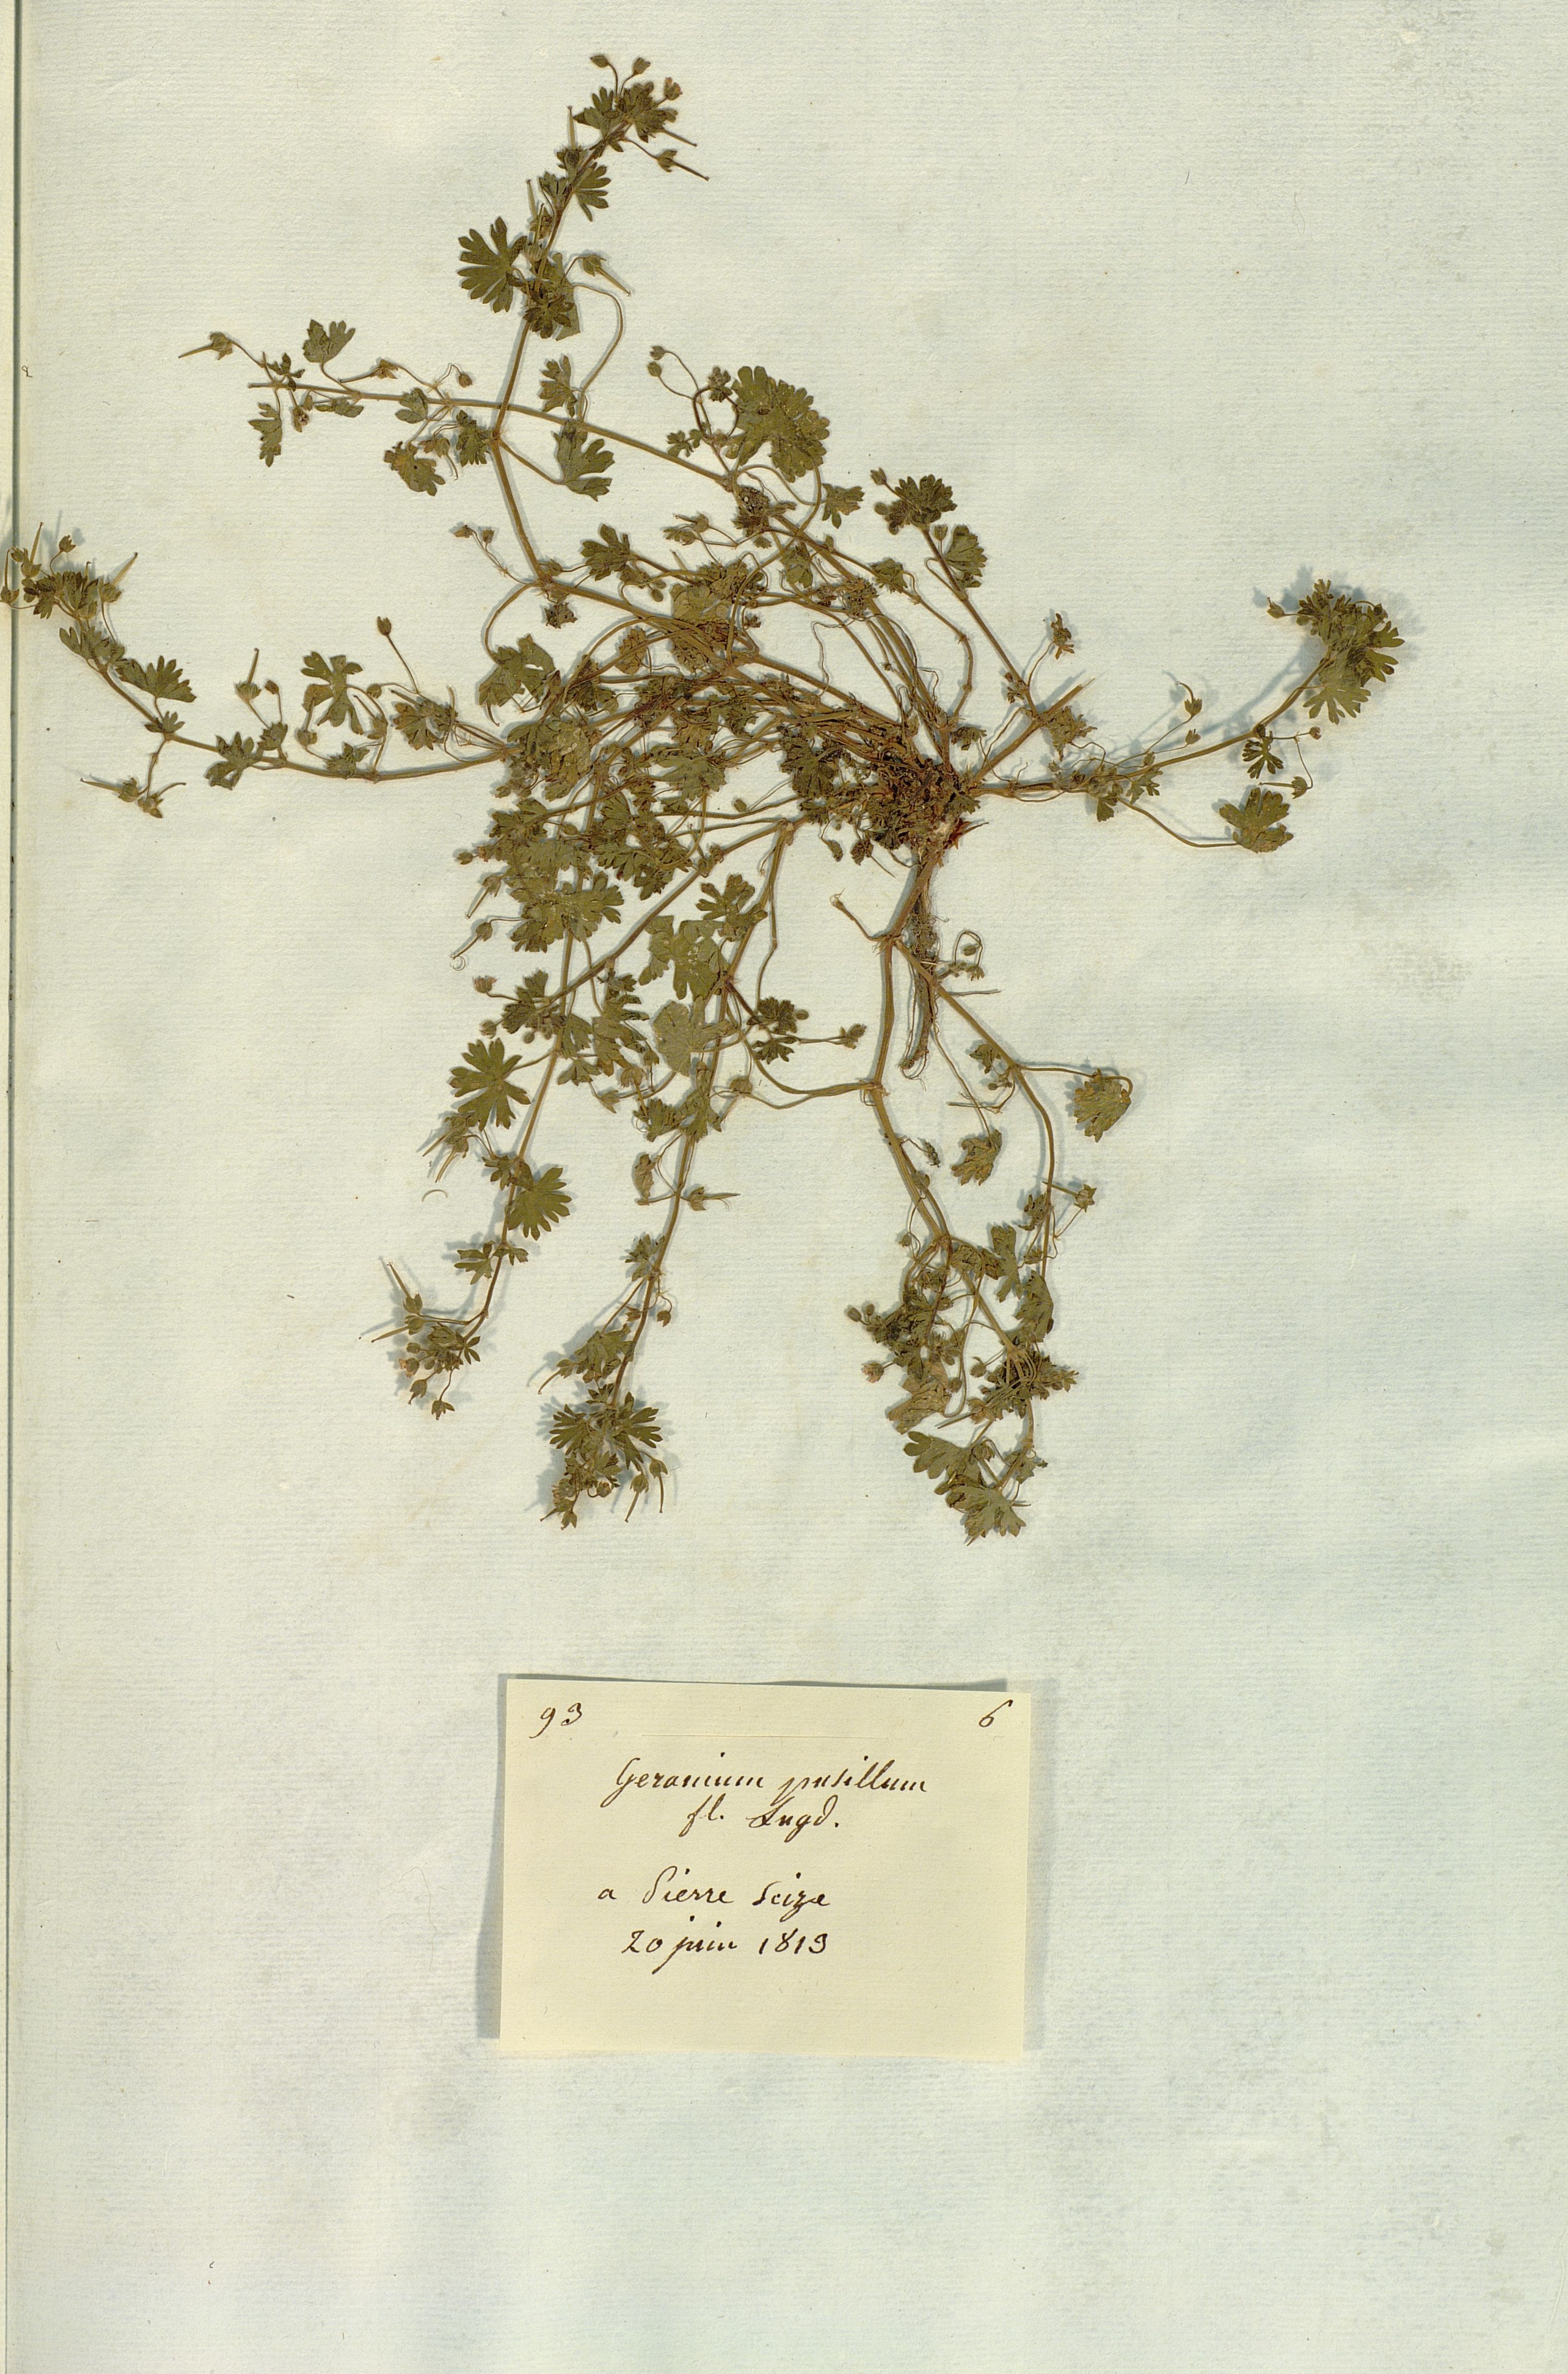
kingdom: Plantae
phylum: Tracheophyta
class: Magnoliopsida
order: Geraniales
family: Geraniaceae
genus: Geranium
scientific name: Geranium pusillum
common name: Small geranium
